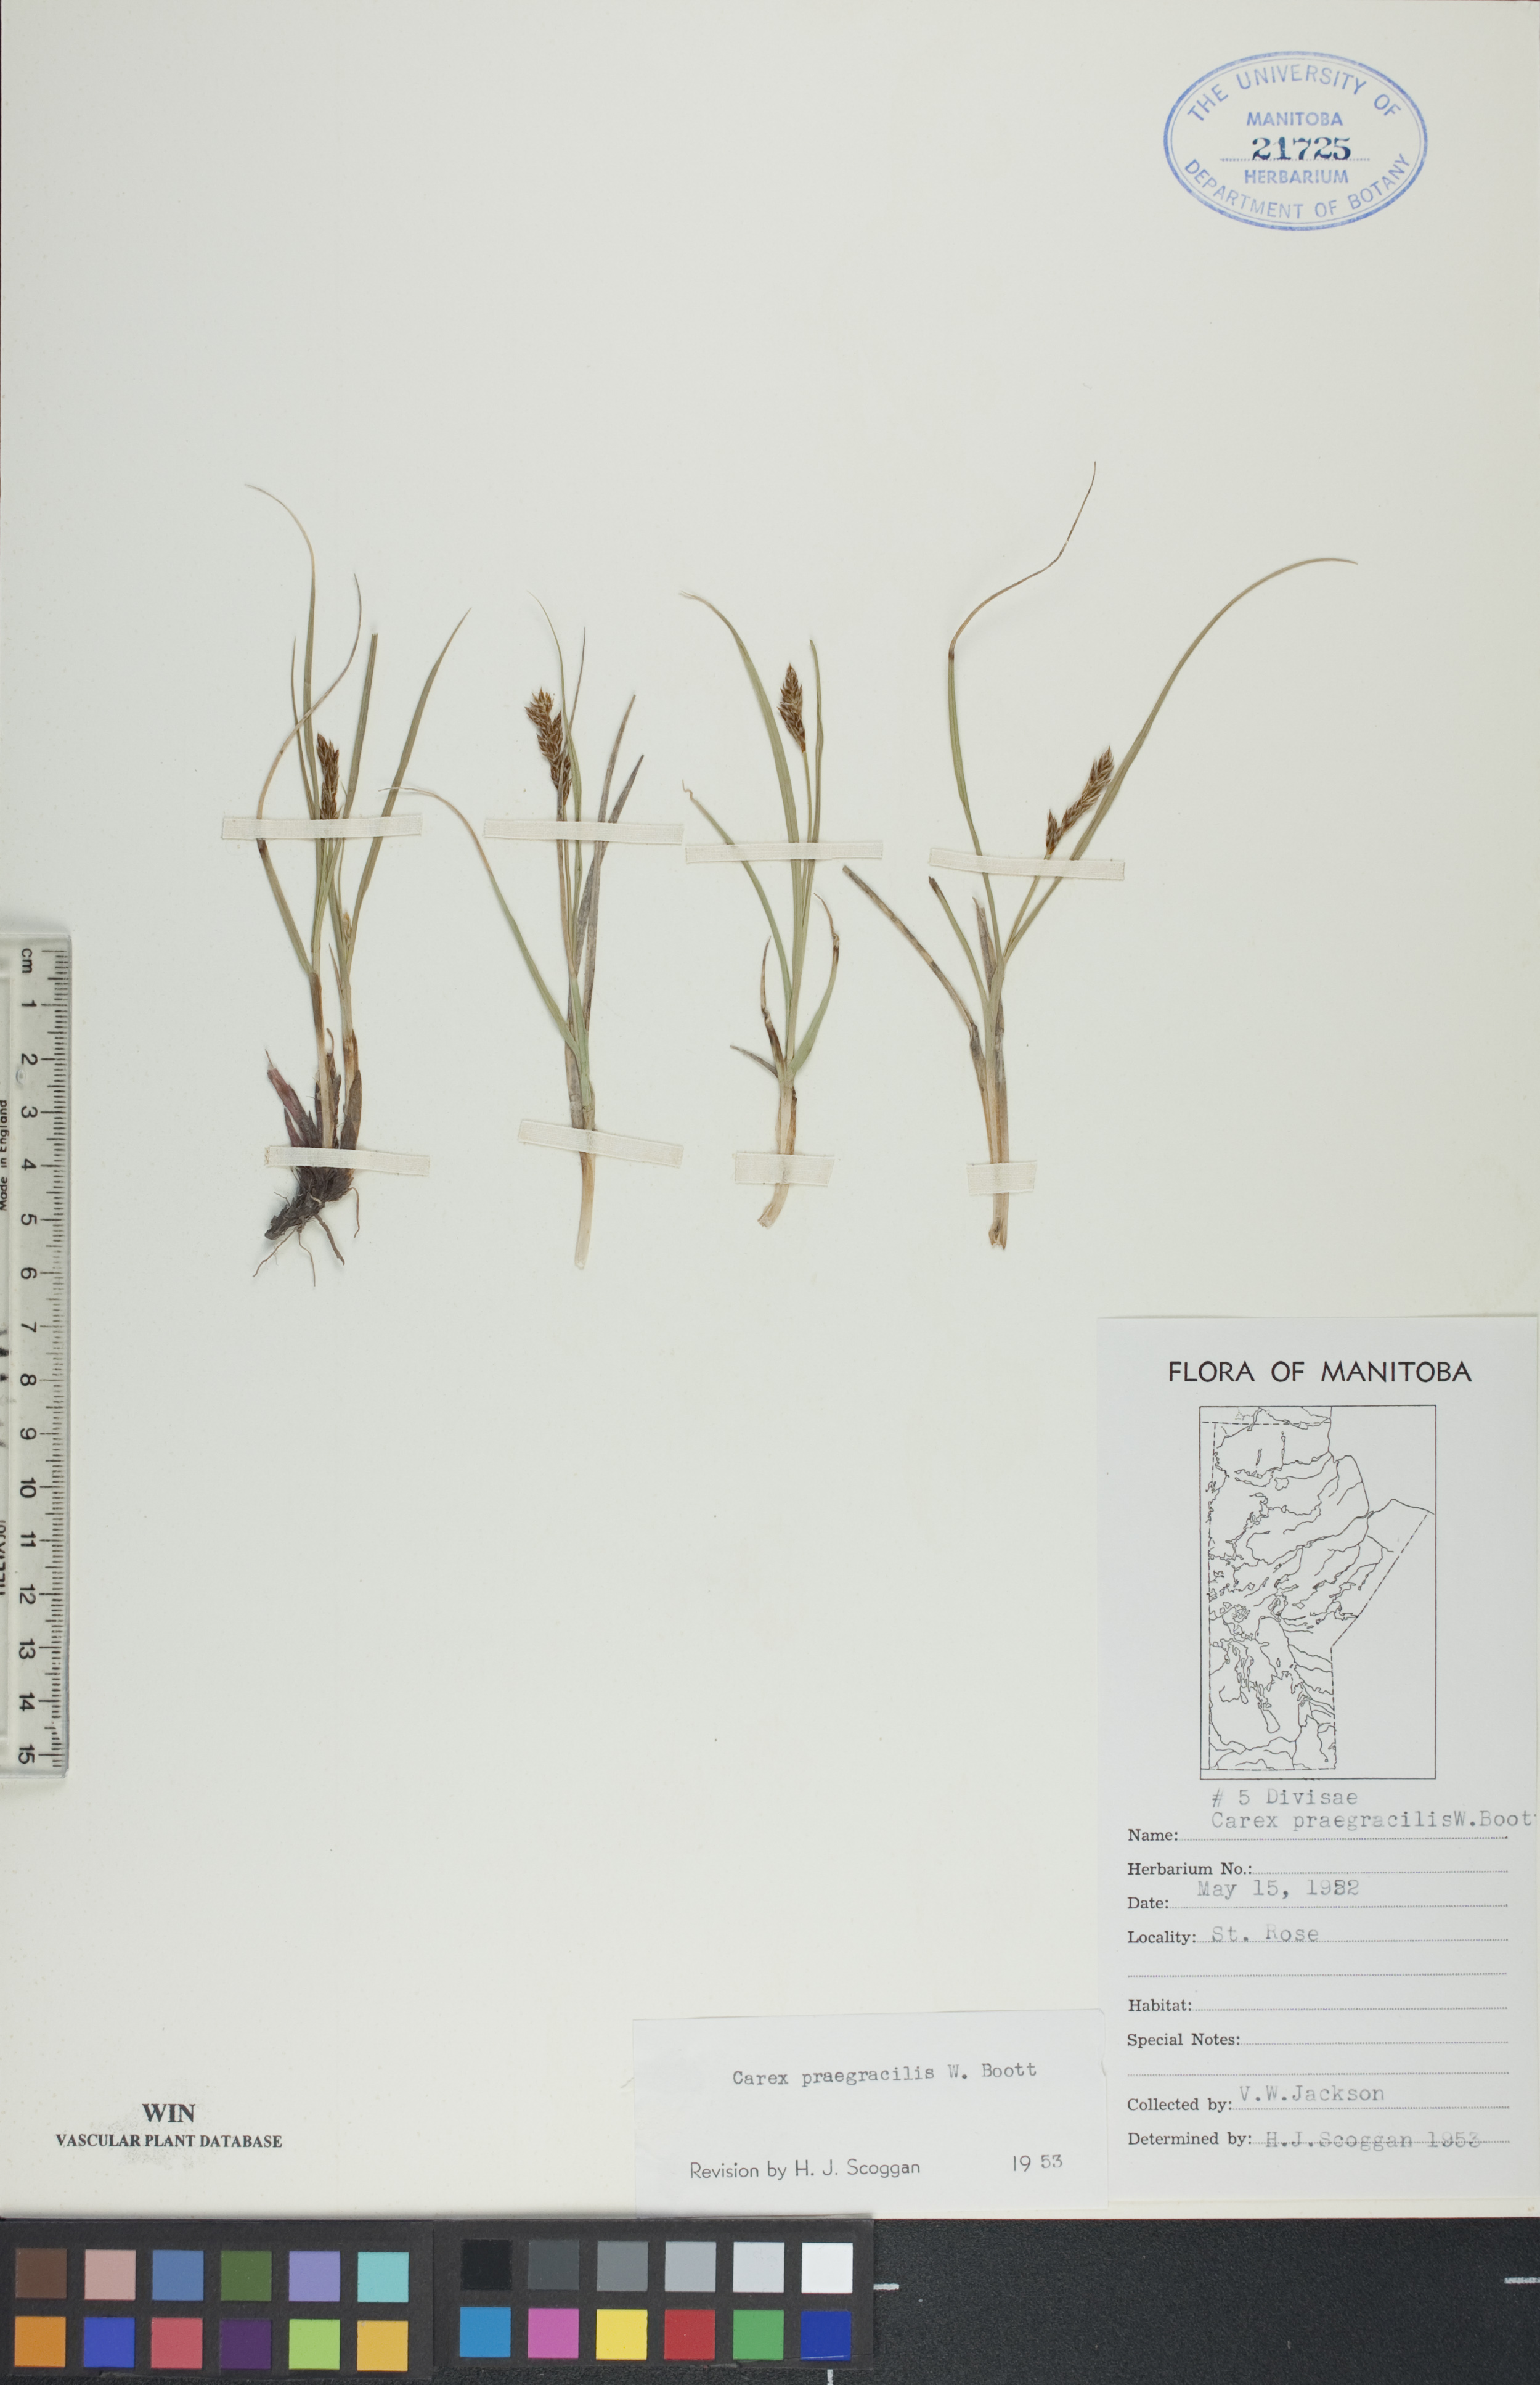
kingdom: Plantae
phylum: Tracheophyta
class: Liliopsida
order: Poales
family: Cyperaceae
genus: Carex
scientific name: Carex praegracilis
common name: Black creeper sedge
